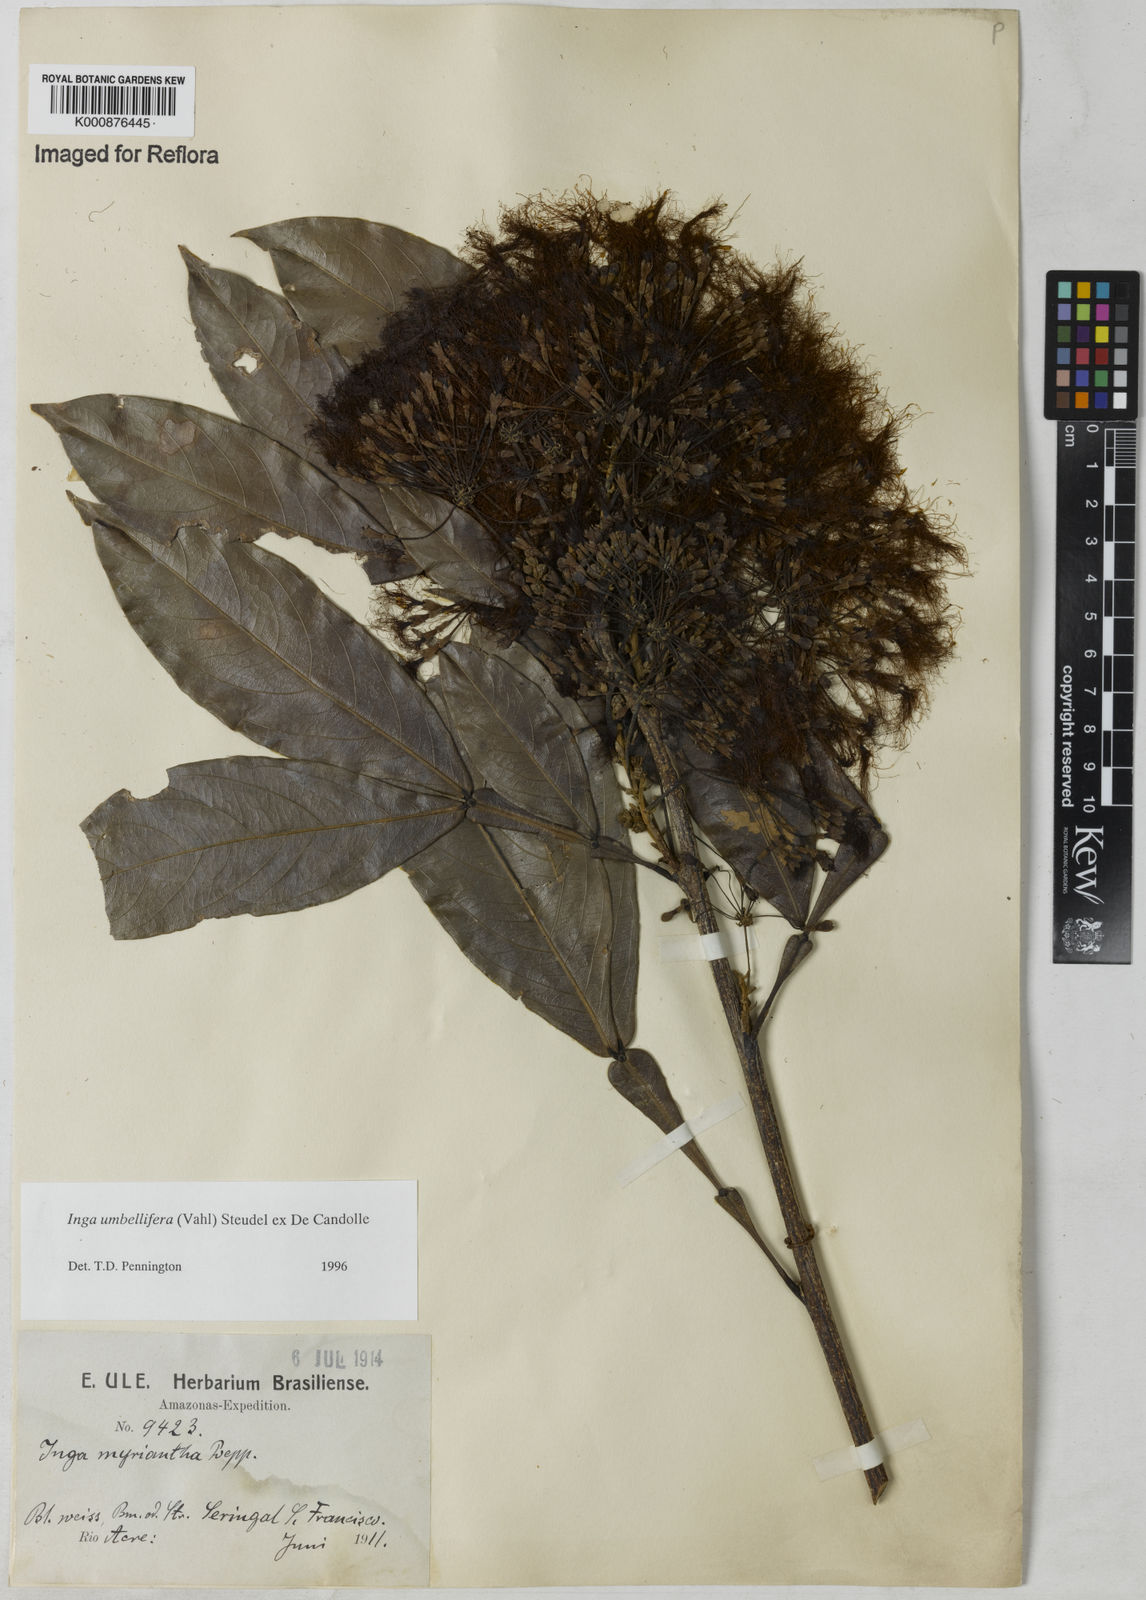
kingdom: Plantae
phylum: Tracheophyta
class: Magnoliopsida
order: Fabales
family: Fabaceae
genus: Inga
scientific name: Inga umbellifera
